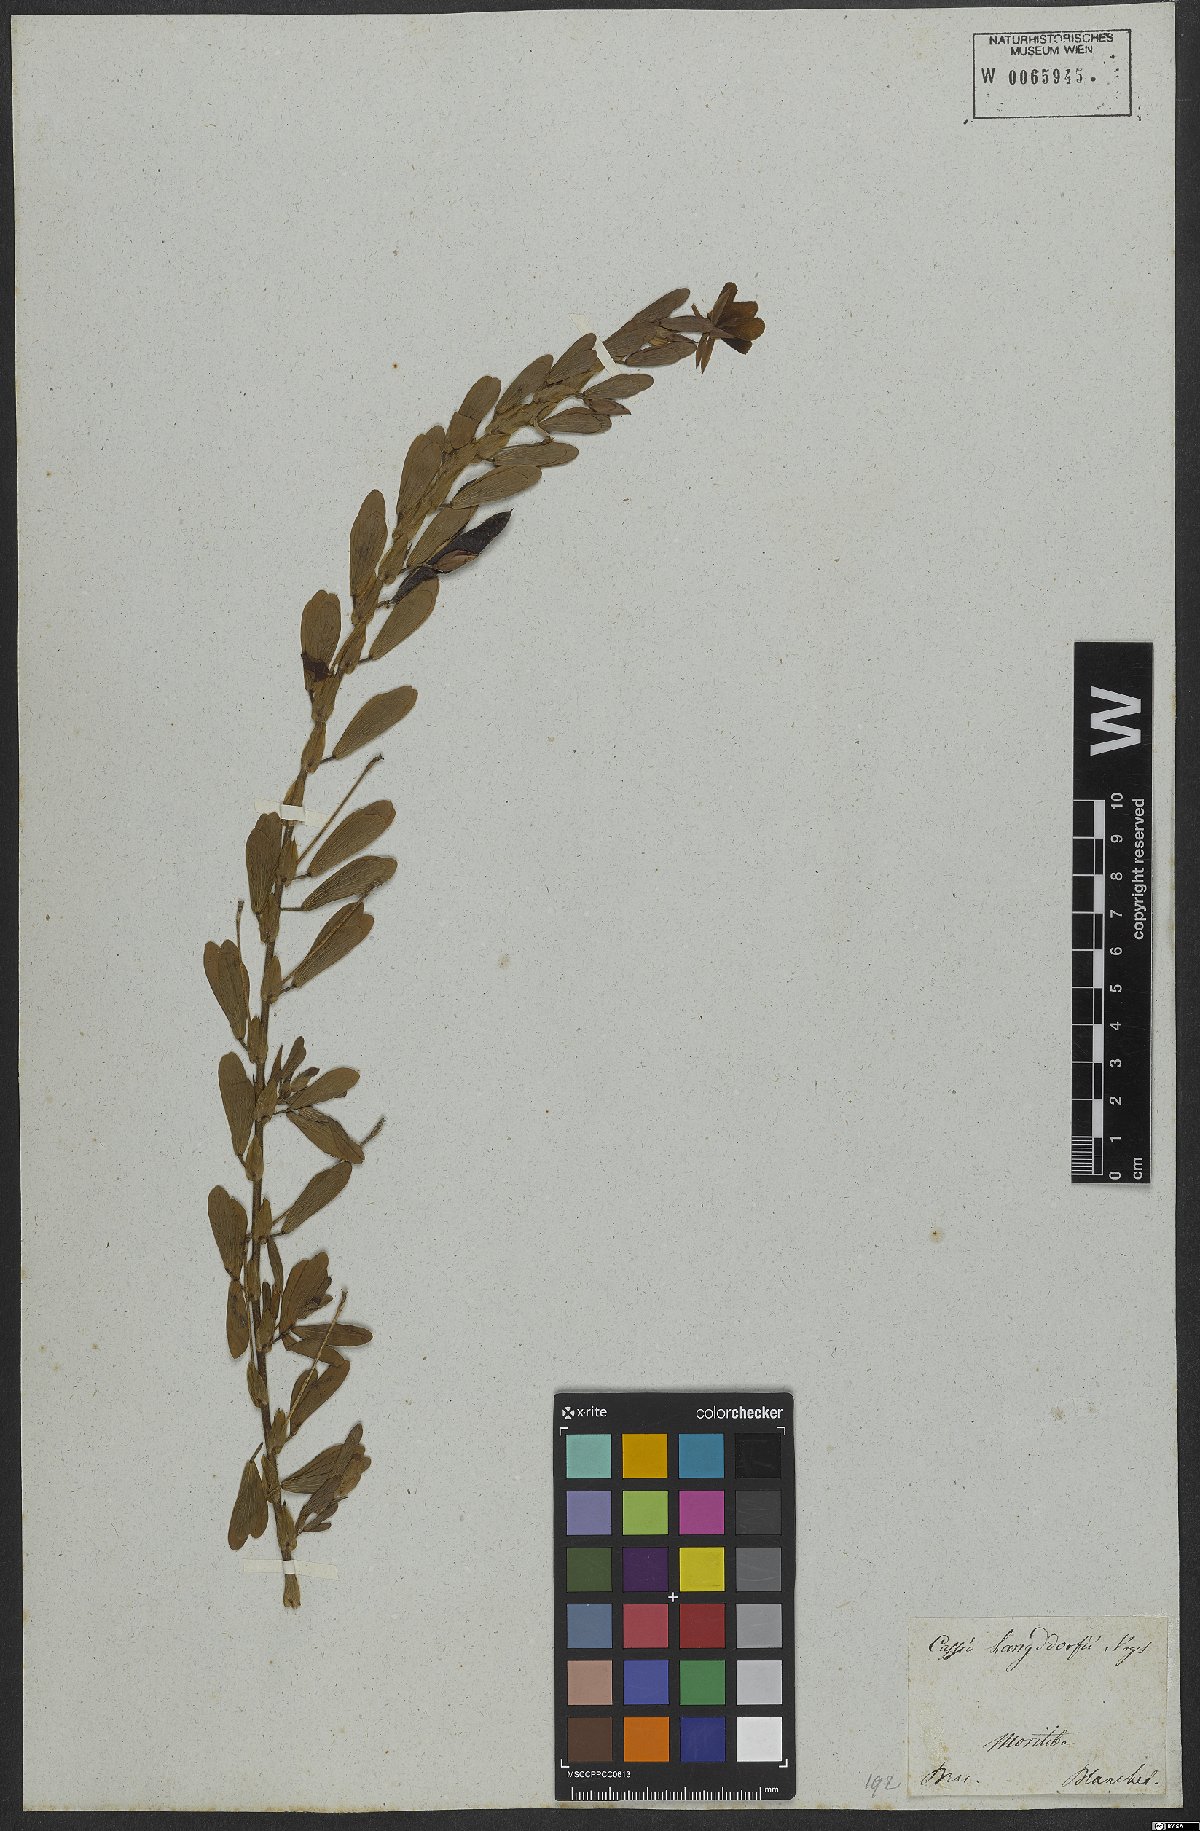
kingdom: Plantae
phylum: Tracheophyta
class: Magnoliopsida
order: Fabales
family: Fabaceae
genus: Chamaecrista
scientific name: Chamaecrista langsdorffii
